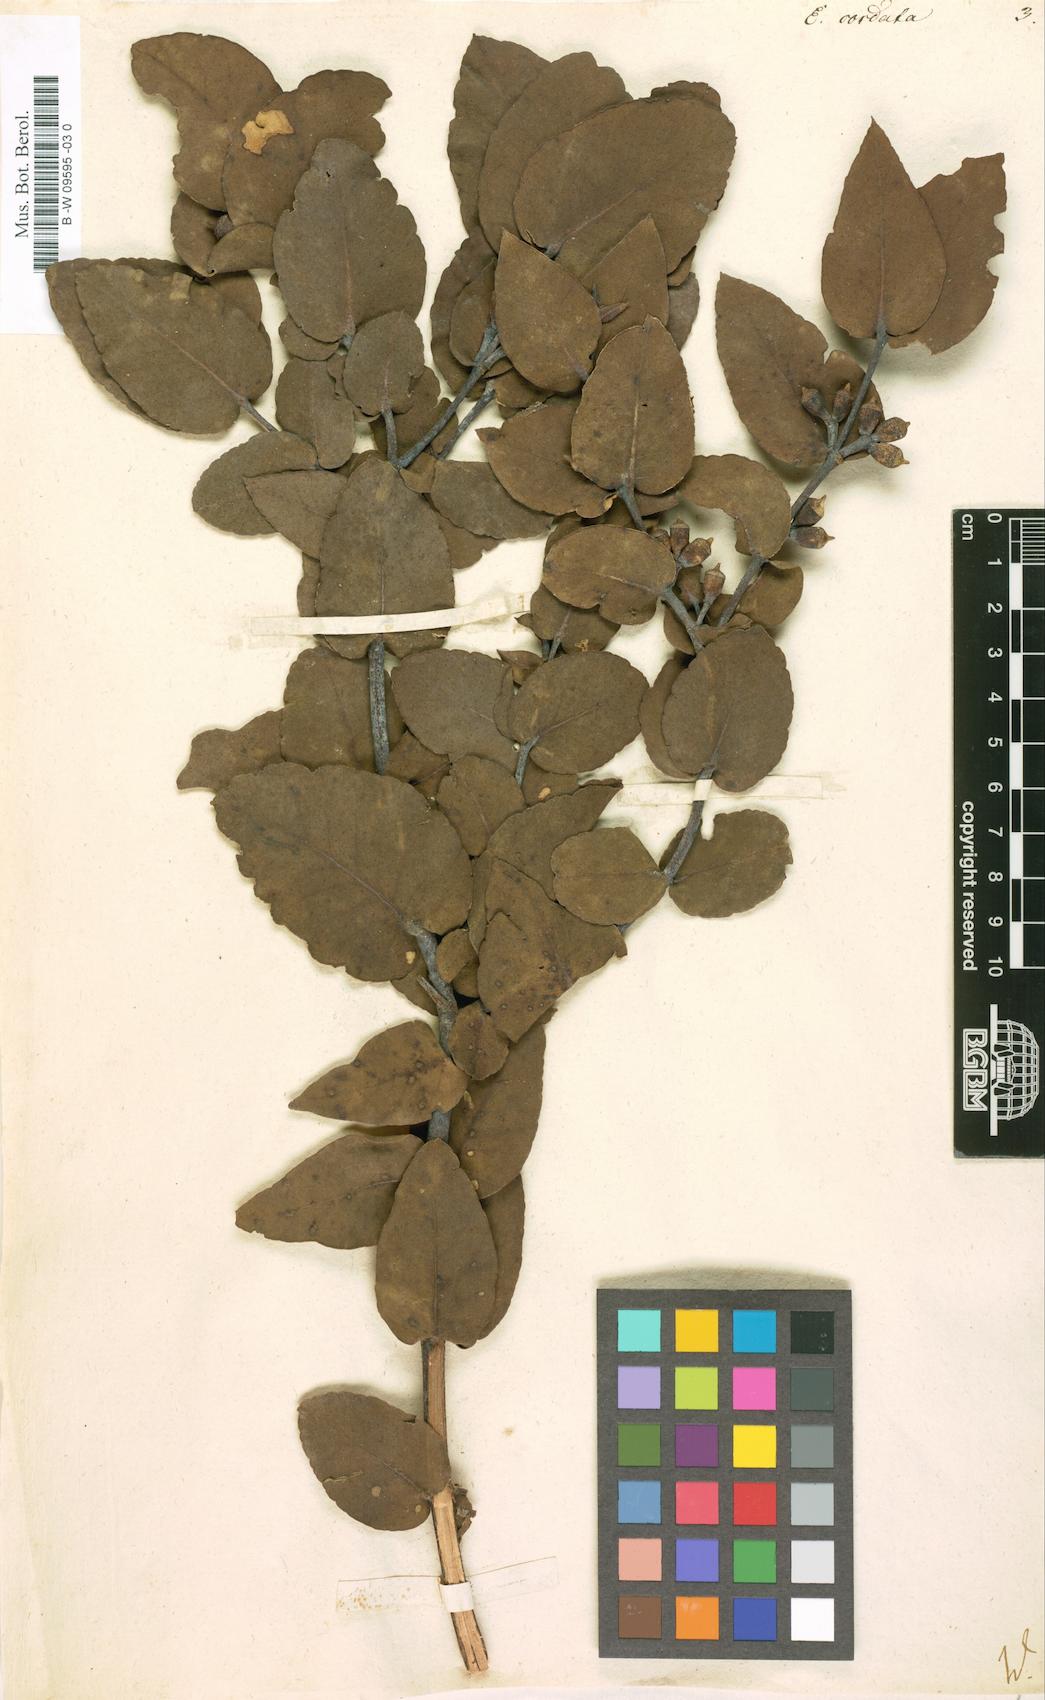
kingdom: Plantae
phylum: Tracheophyta
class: Magnoliopsida
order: Myrtales
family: Myrtaceae
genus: Eucalyptus
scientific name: Eucalyptus cordata
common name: Heart-leaf silver gum
